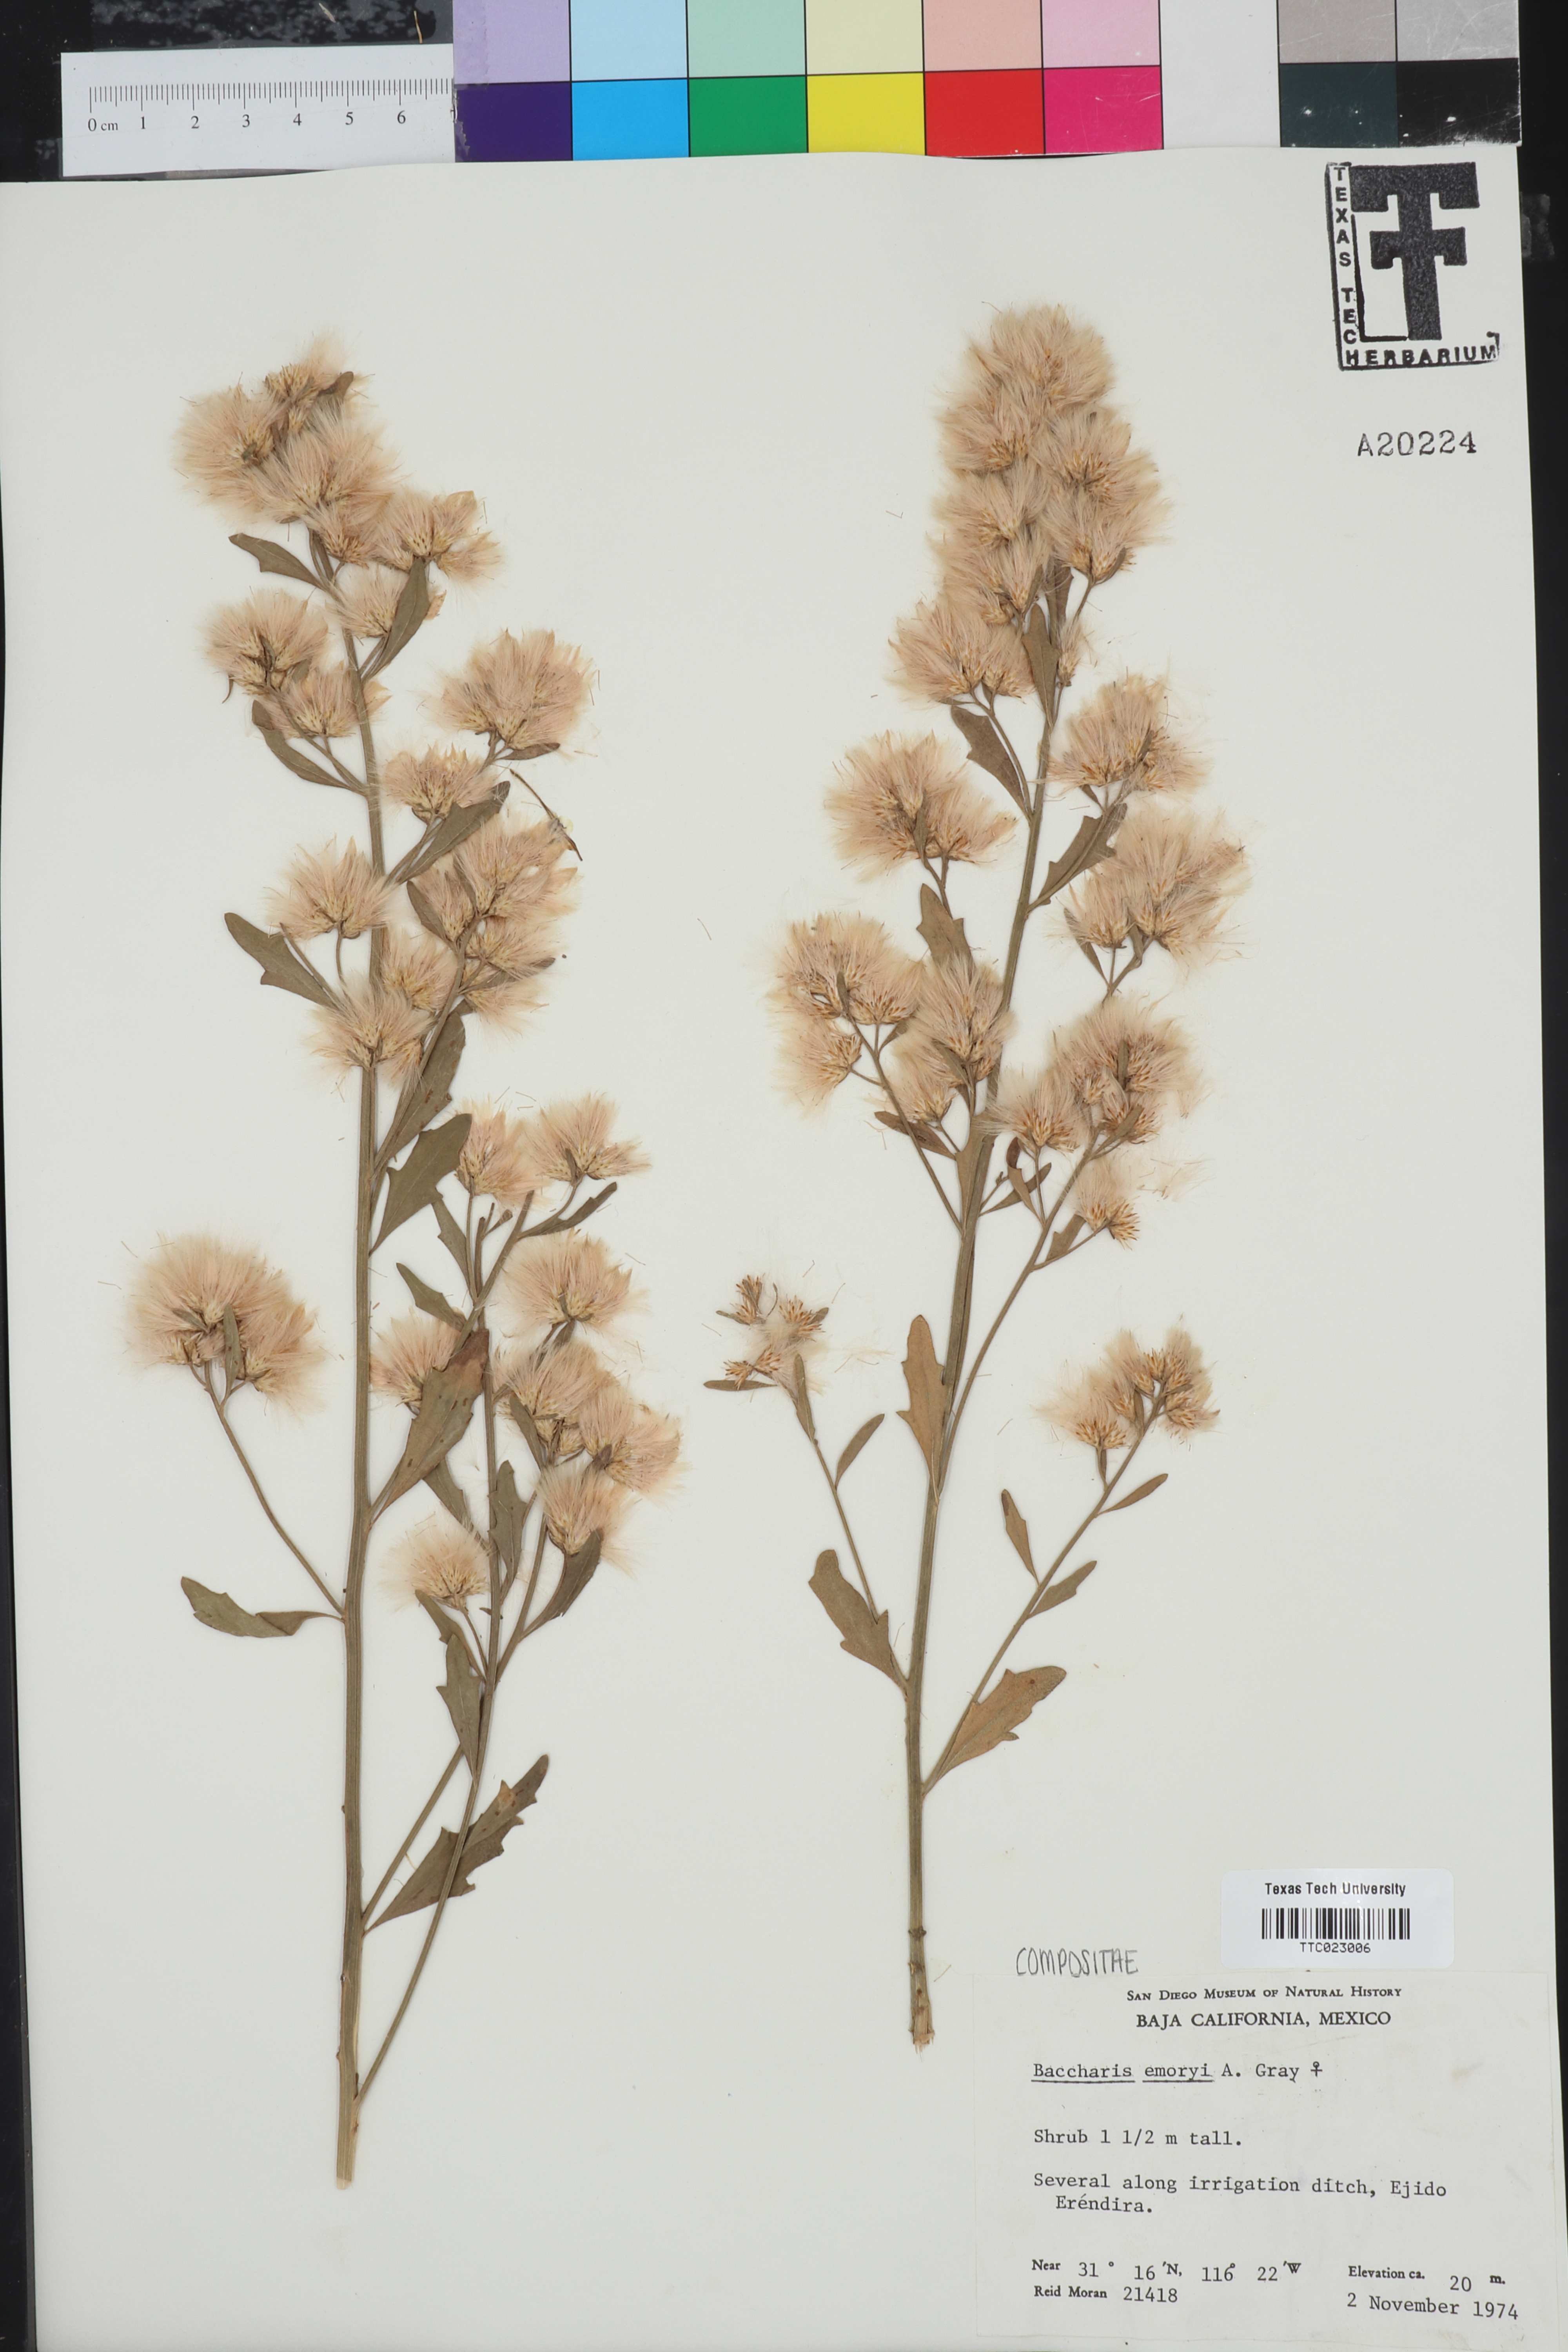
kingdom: Plantae
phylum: Tracheophyta
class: Magnoliopsida
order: Asterales
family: Asteraceae
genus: Baccharis
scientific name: Baccharis salicina
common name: Willow baccharis
